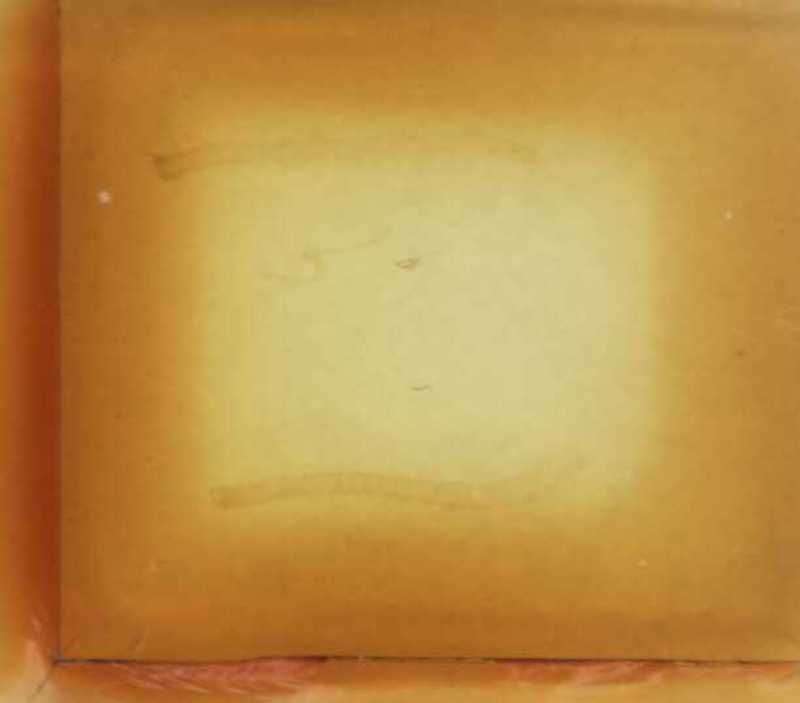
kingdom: Animalia
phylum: Arthropoda
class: Chilopoda
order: Geophilomorpha
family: Geophilidae
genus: Geophilus
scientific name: Geophilus promontorii
